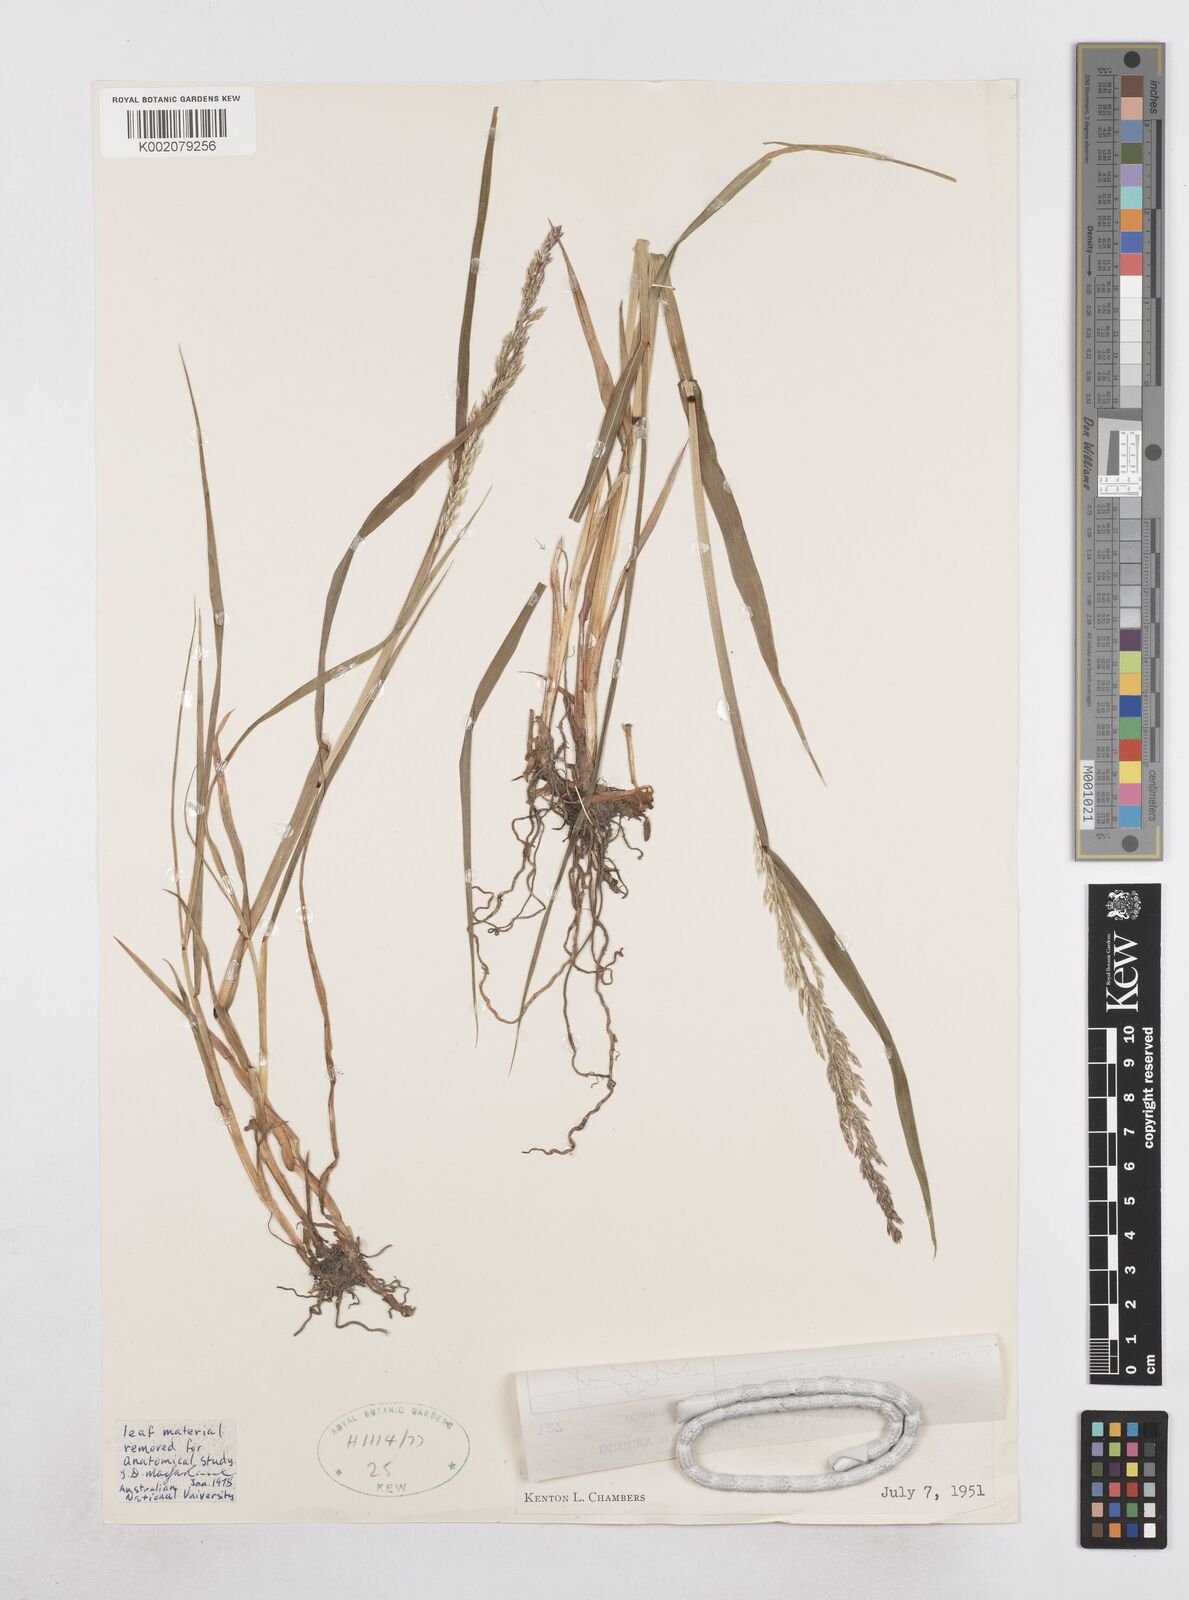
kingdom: Plantae
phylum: Tracheophyta
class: Liliopsida
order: Poales
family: Poaceae
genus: Arctagrostis
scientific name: Arctagrostis latifolia
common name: Arctic grass
